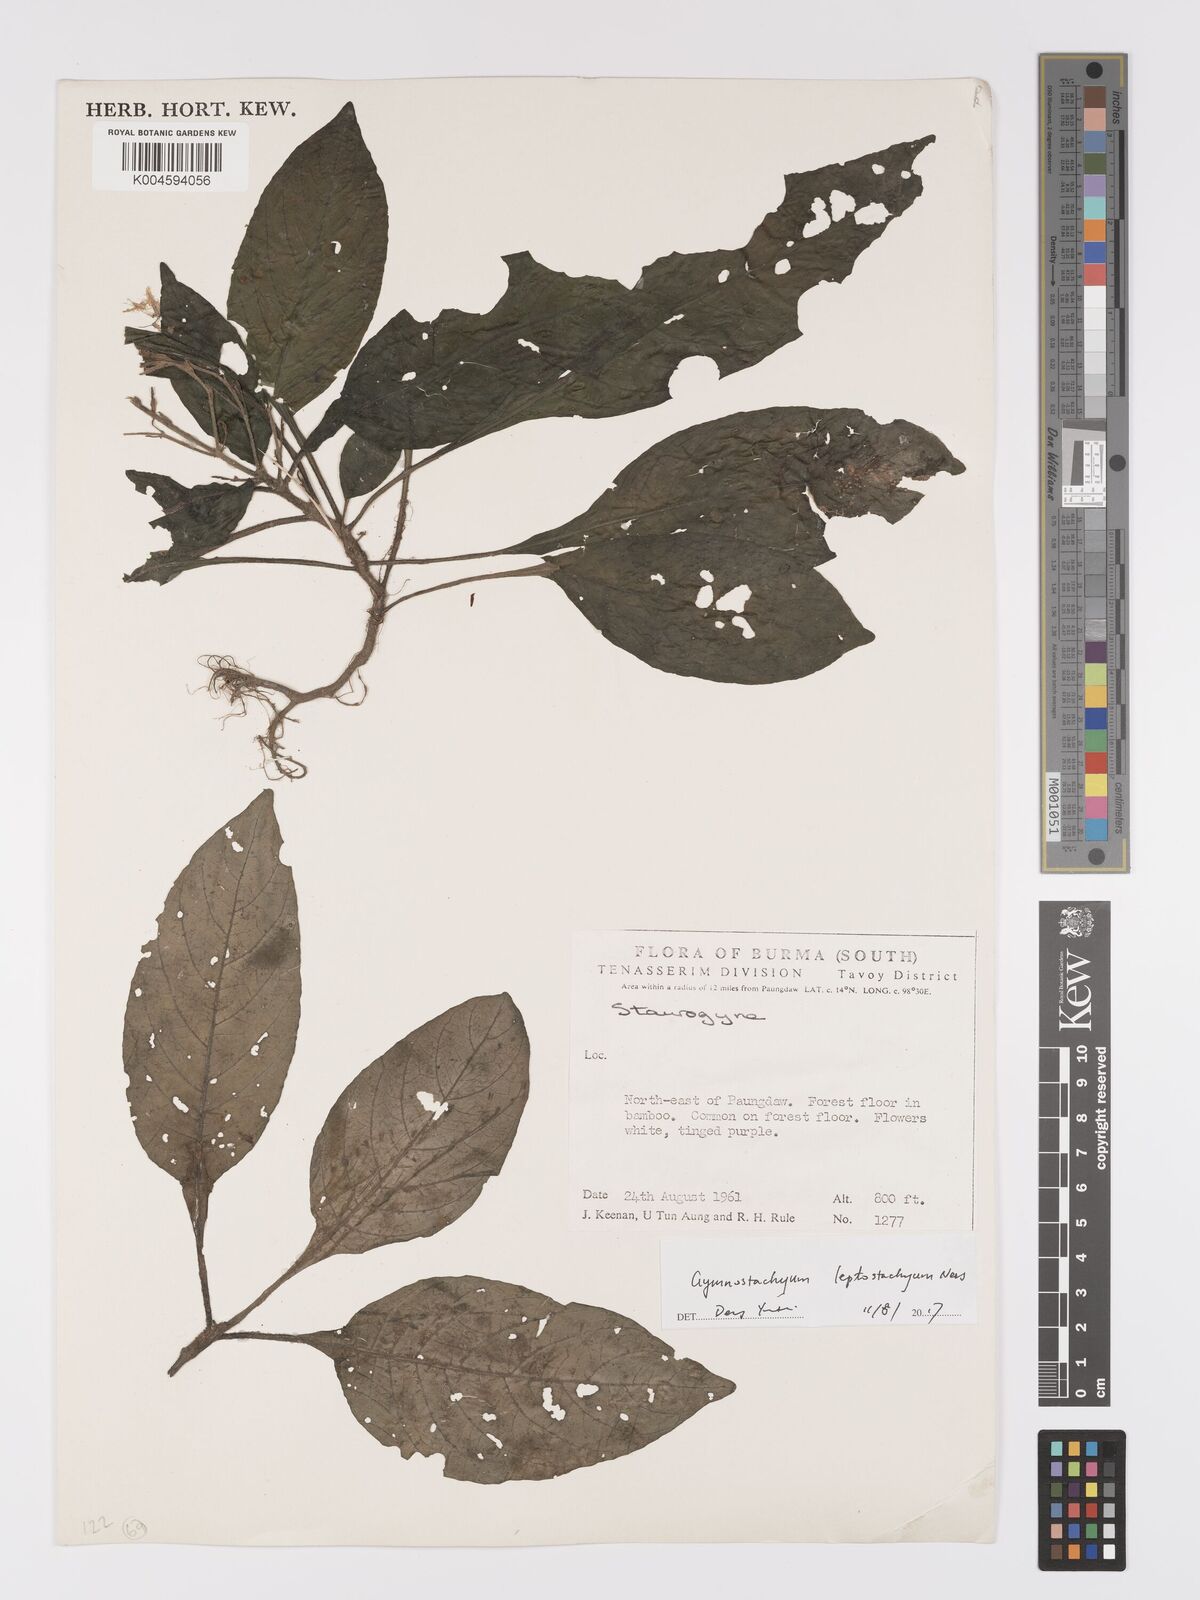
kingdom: Plantae
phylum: Tracheophyta
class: Magnoliopsida
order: Lamiales
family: Acanthaceae
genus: Gymnostachyum
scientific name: Gymnostachyum leptostachyum
